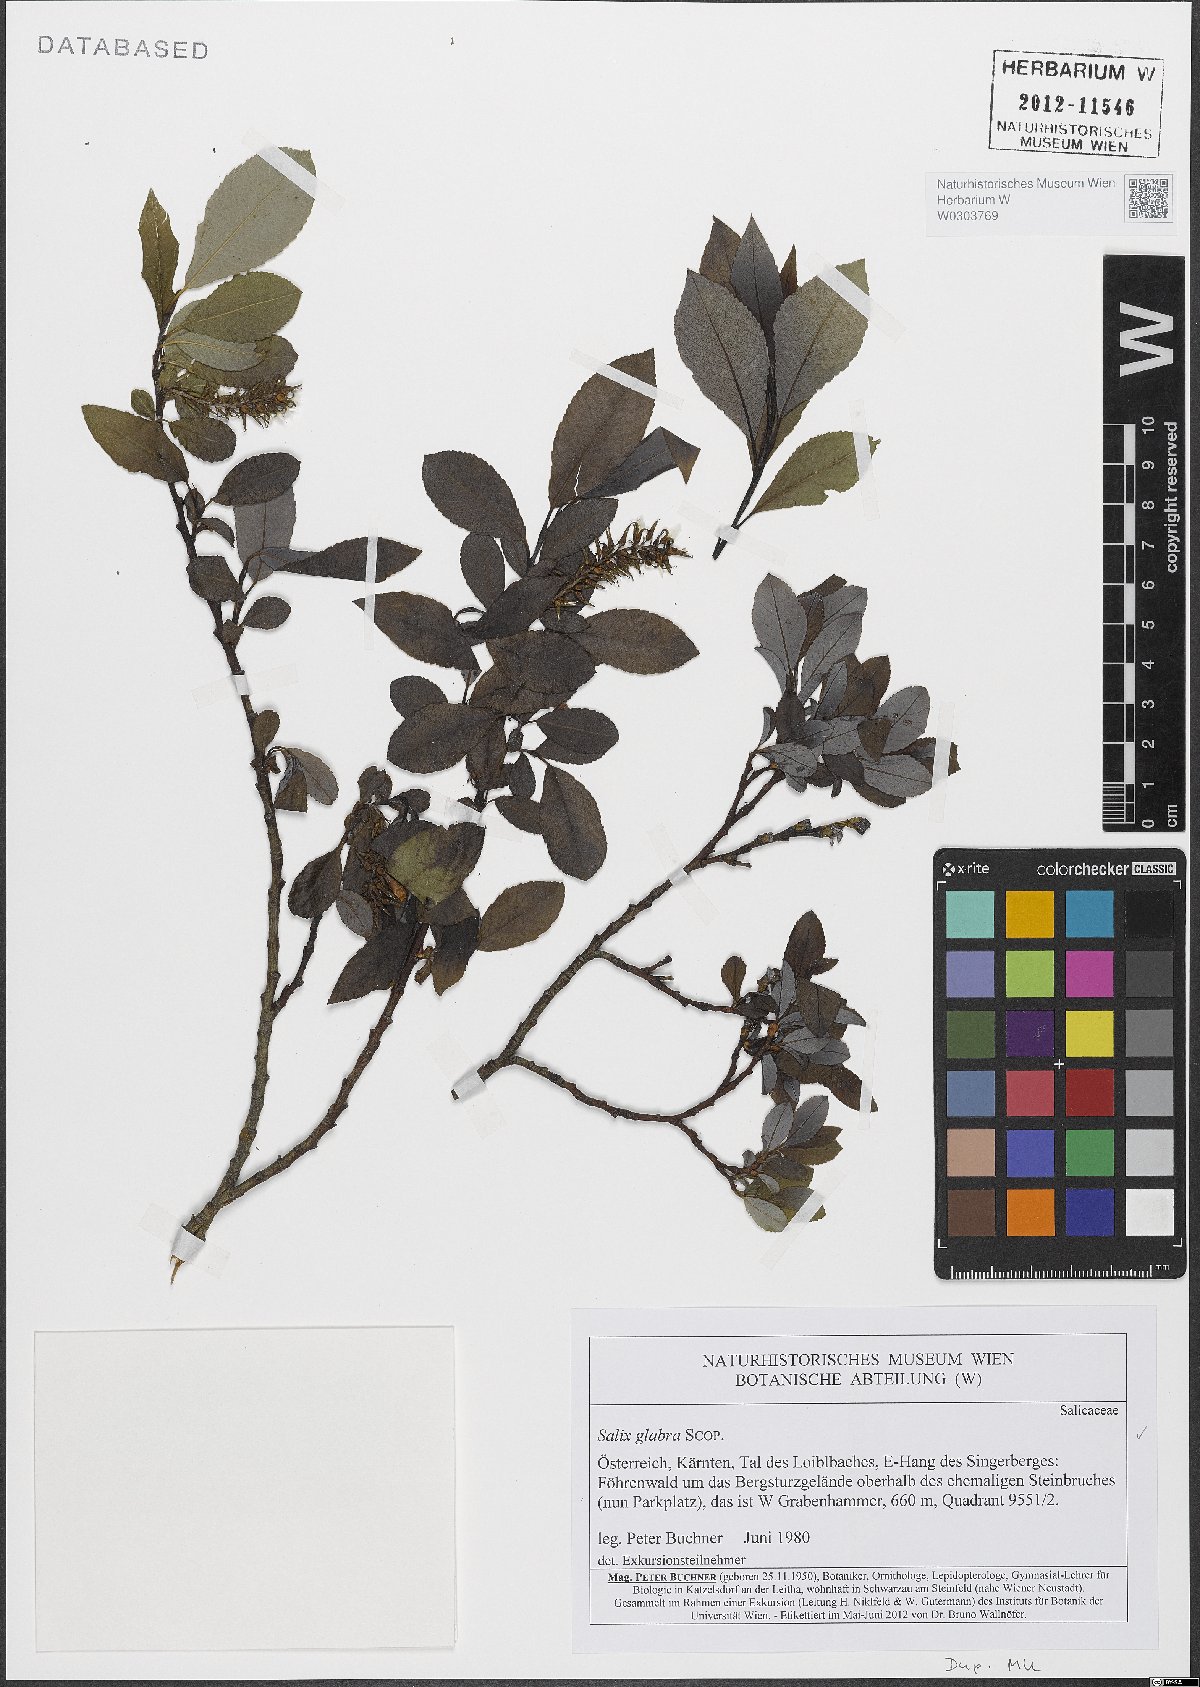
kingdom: Plantae
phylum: Tracheophyta
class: Magnoliopsida
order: Malpighiales
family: Salicaceae
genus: Salix
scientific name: Salix glabra
